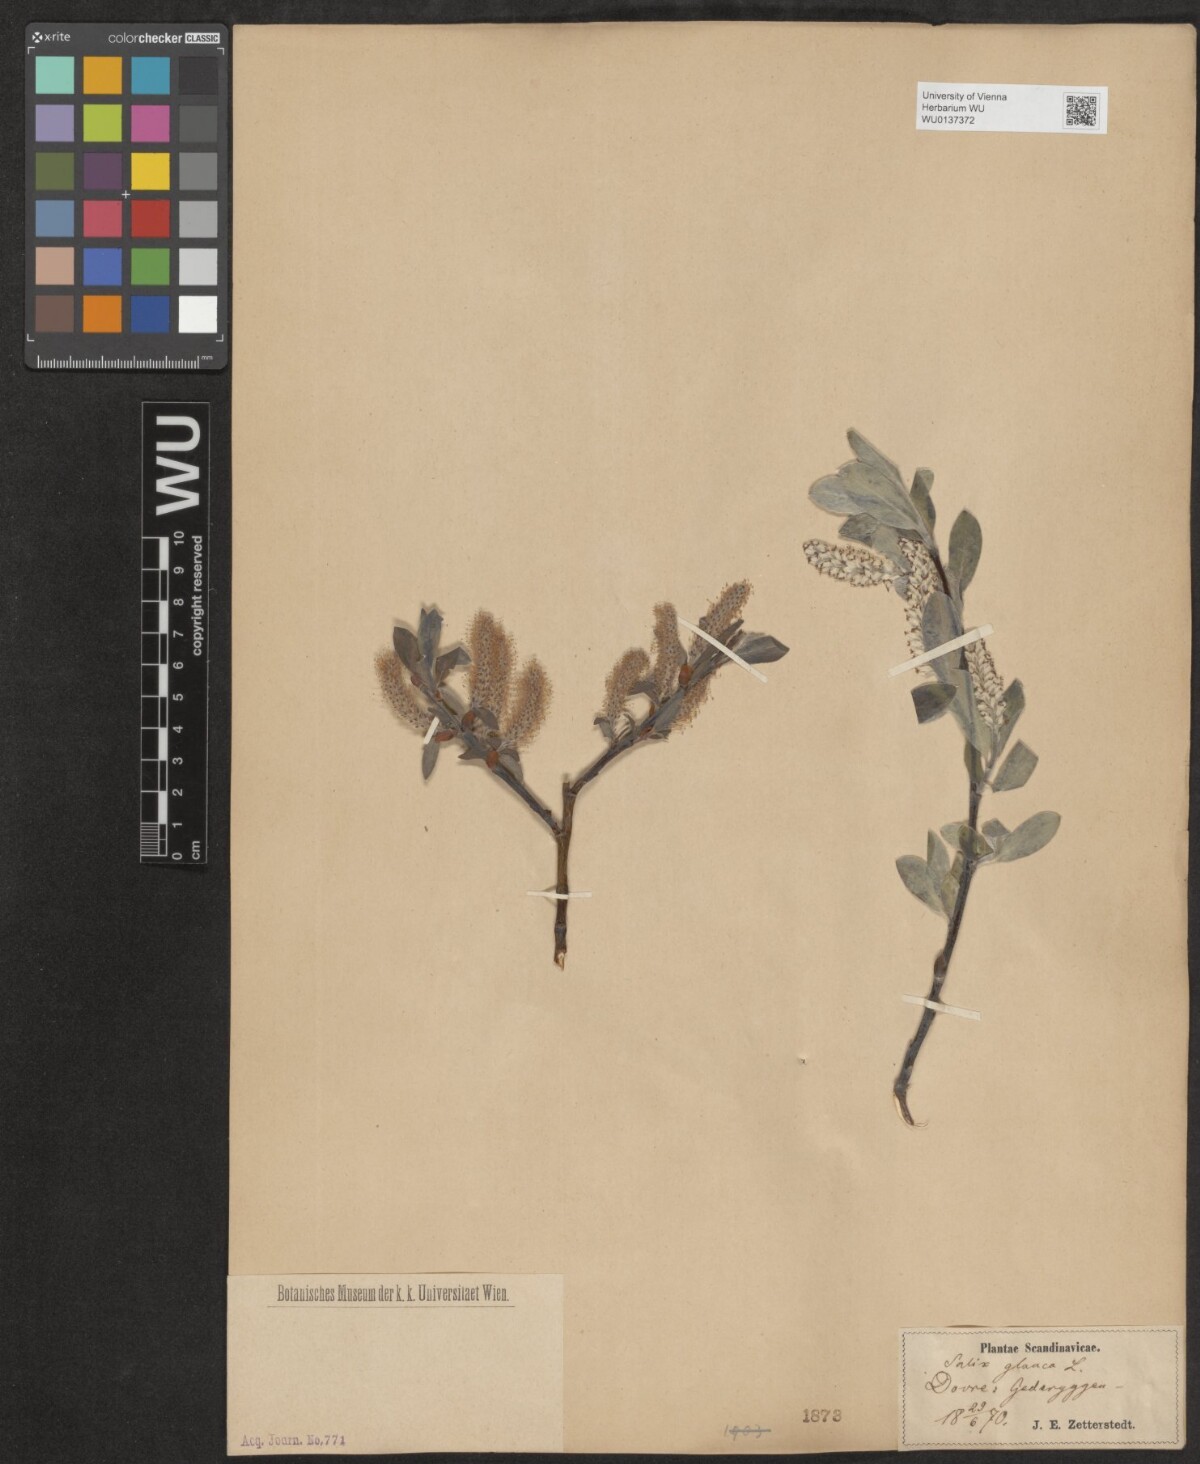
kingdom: Plantae
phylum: Tracheophyta
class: Magnoliopsida
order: Malpighiales
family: Salicaceae
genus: Salix
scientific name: Salix glauca
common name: Glaucous willow
